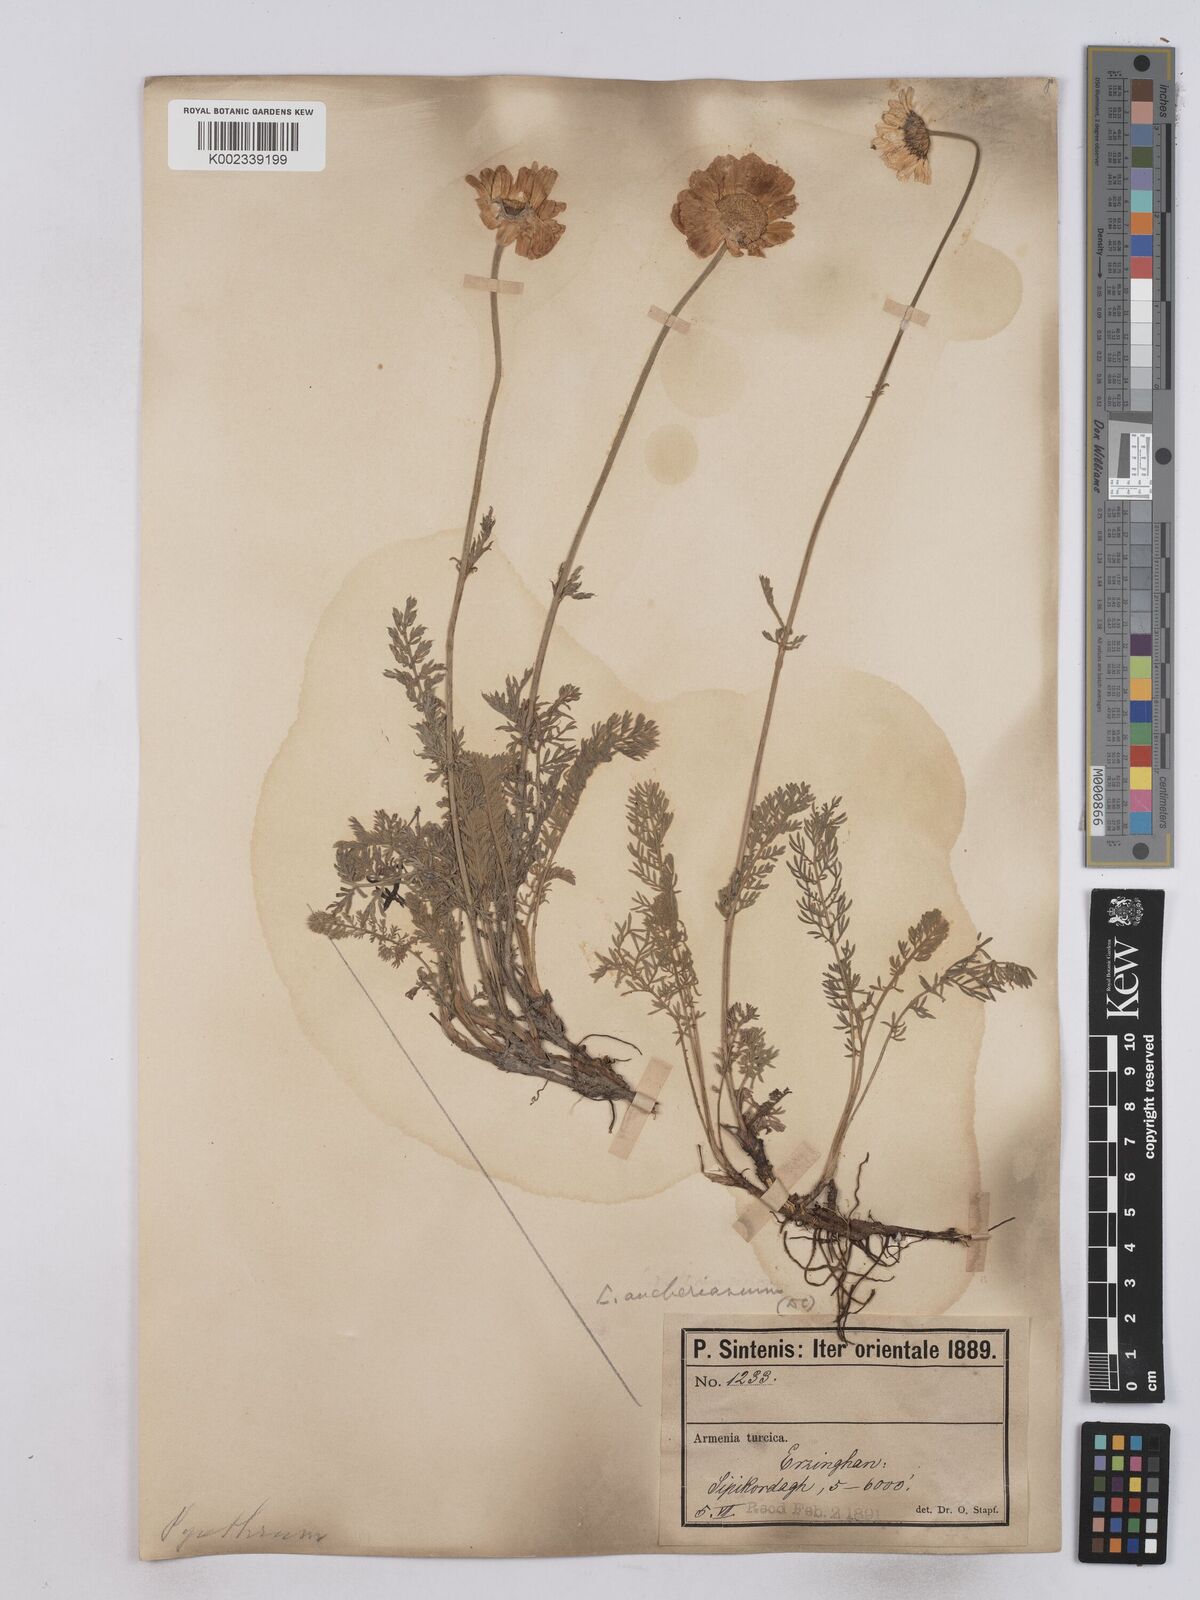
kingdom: Plantae
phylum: Tracheophyta
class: Magnoliopsida
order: Asterales
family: Asteraceae
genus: Tanacetum
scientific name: Tanacetum aucherianum
